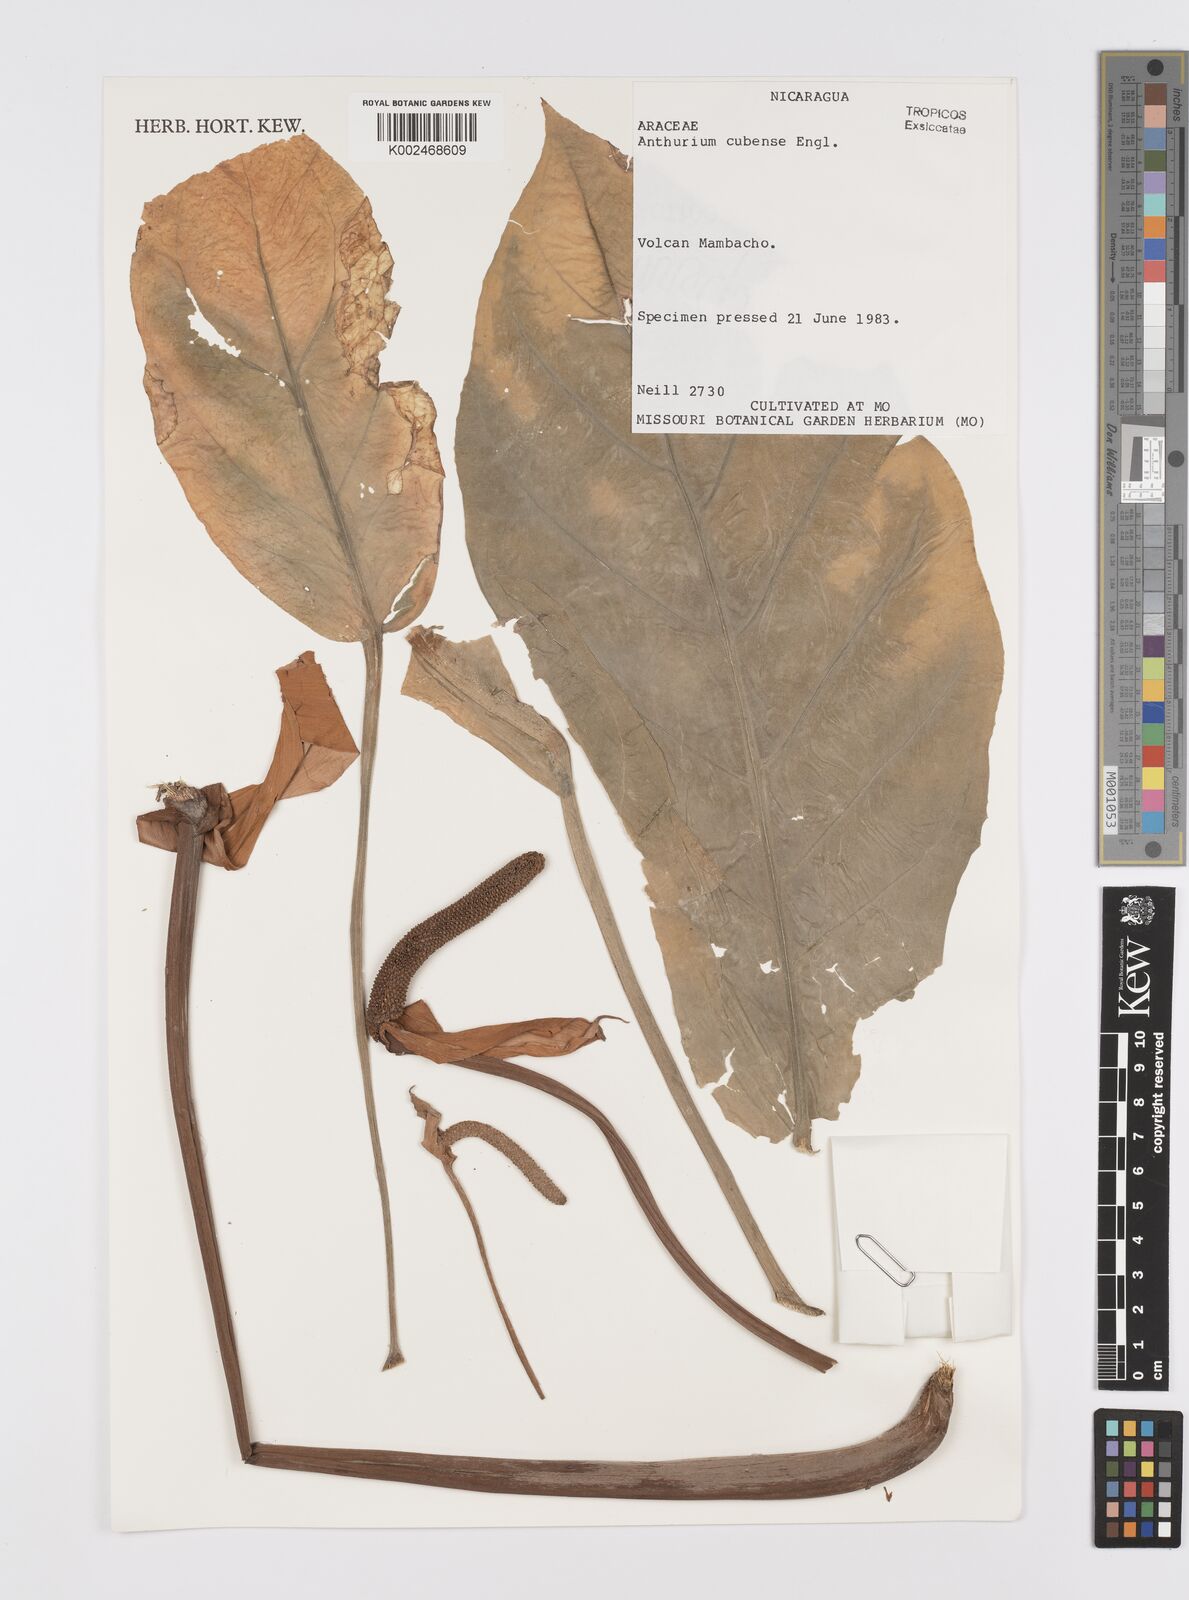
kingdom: Plantae
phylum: Tracheophyta
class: Liliopsida
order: Alismatales
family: Araceae
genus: Anthurium
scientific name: Anthurium cubense
